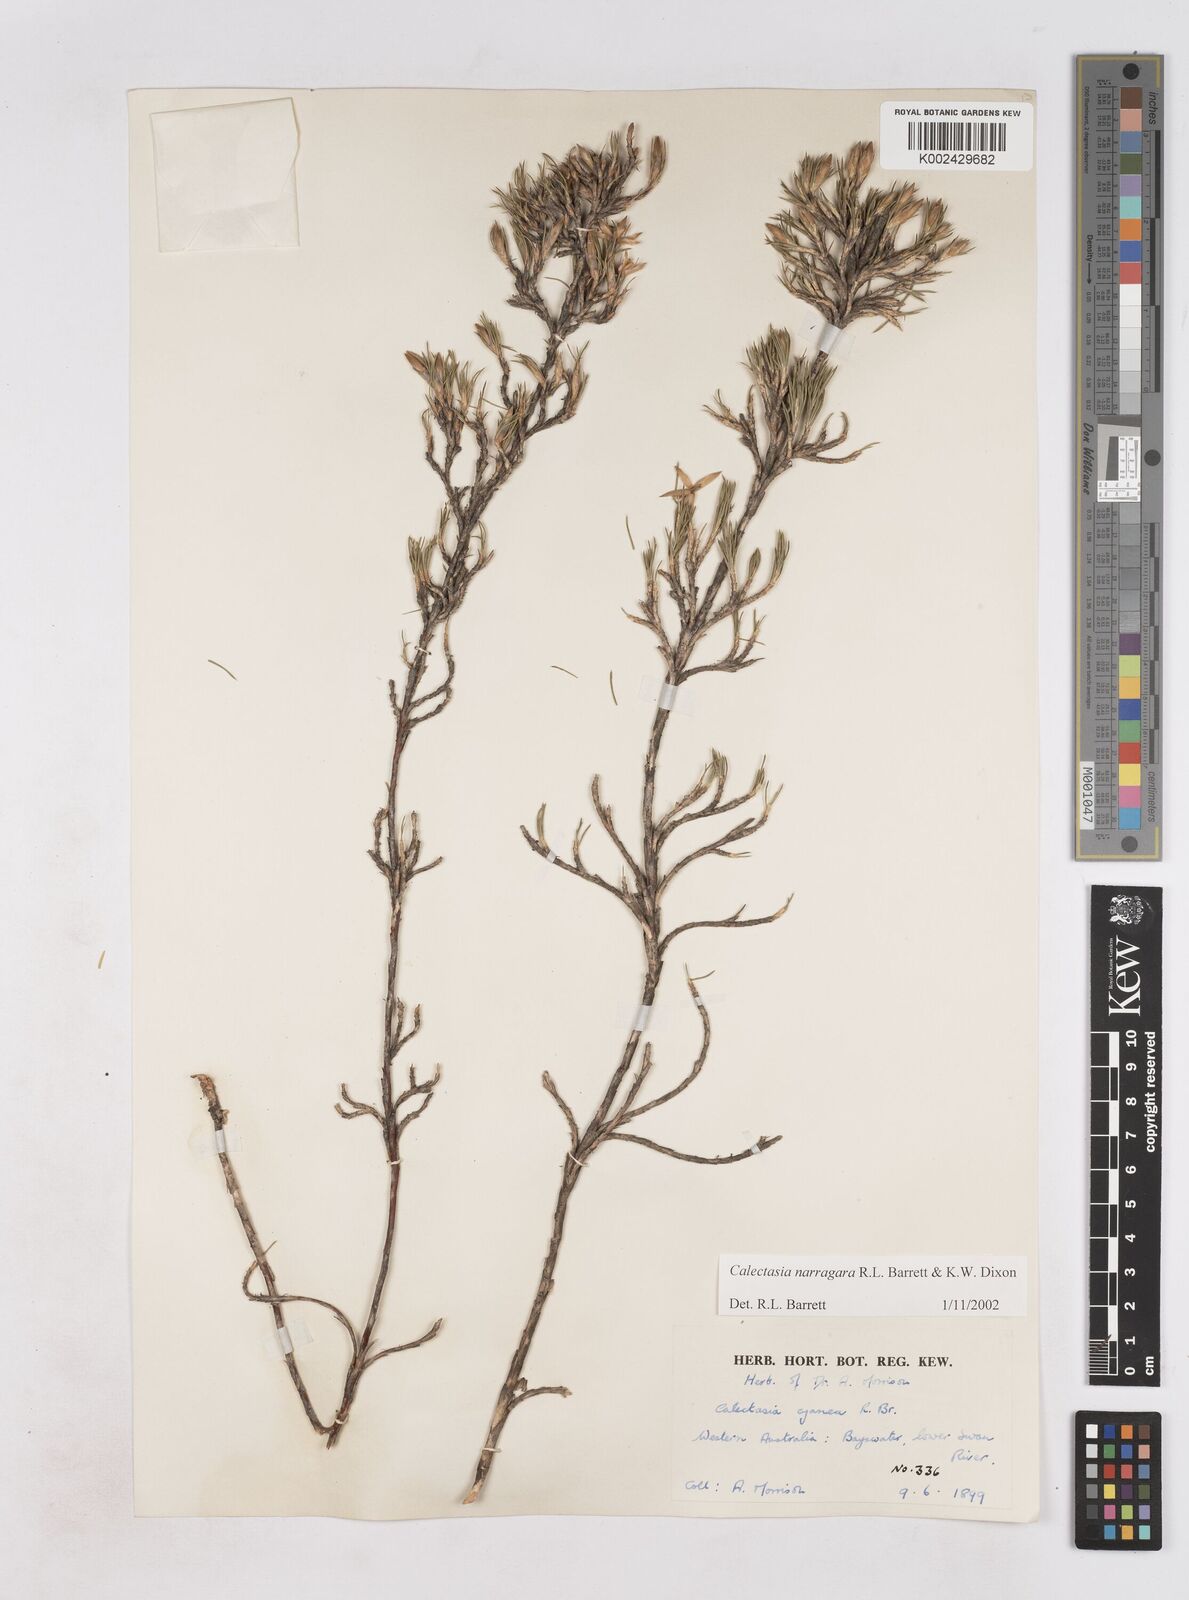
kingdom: Plantae
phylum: Tracheophyta
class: Liliopsida
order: Arecales
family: Dasypogonaceae
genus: Calectasia
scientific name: Calectasia narragara
